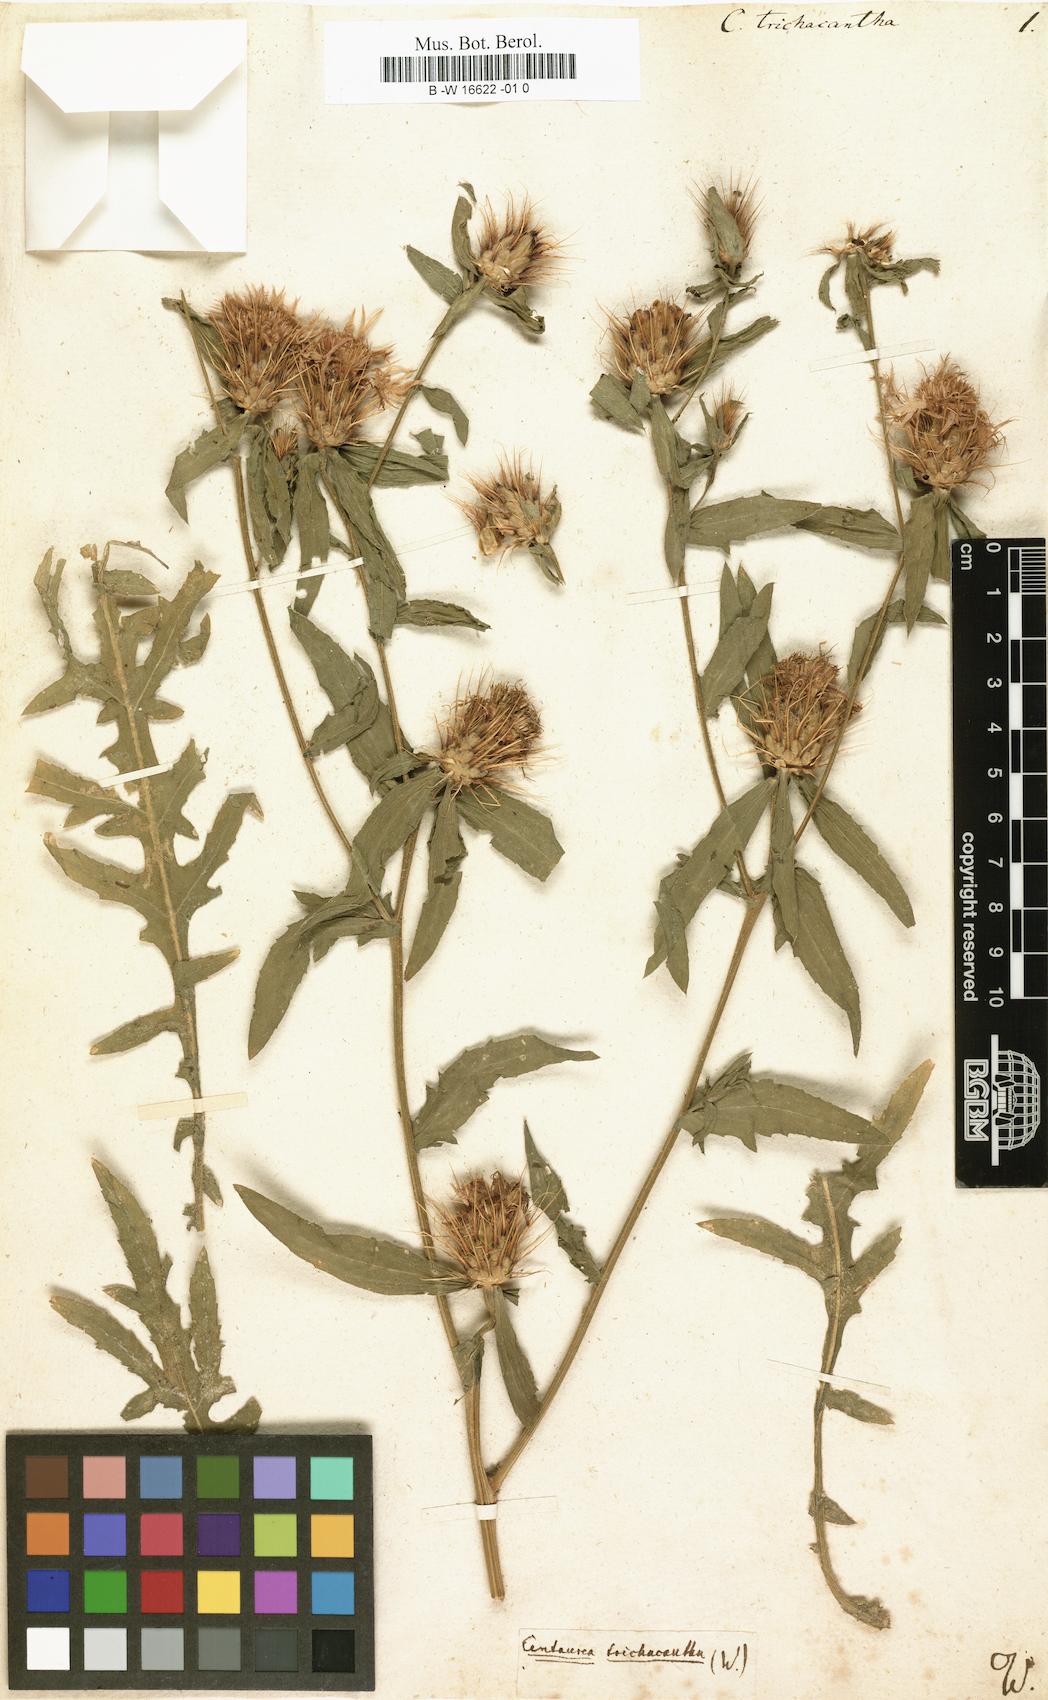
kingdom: Plantae
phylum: Tracheophyta
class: Magnoliopsida
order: Asterales
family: Asteraceae
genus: Centaurea
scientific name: Centaurea calcitrapa
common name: Red star-thistle
